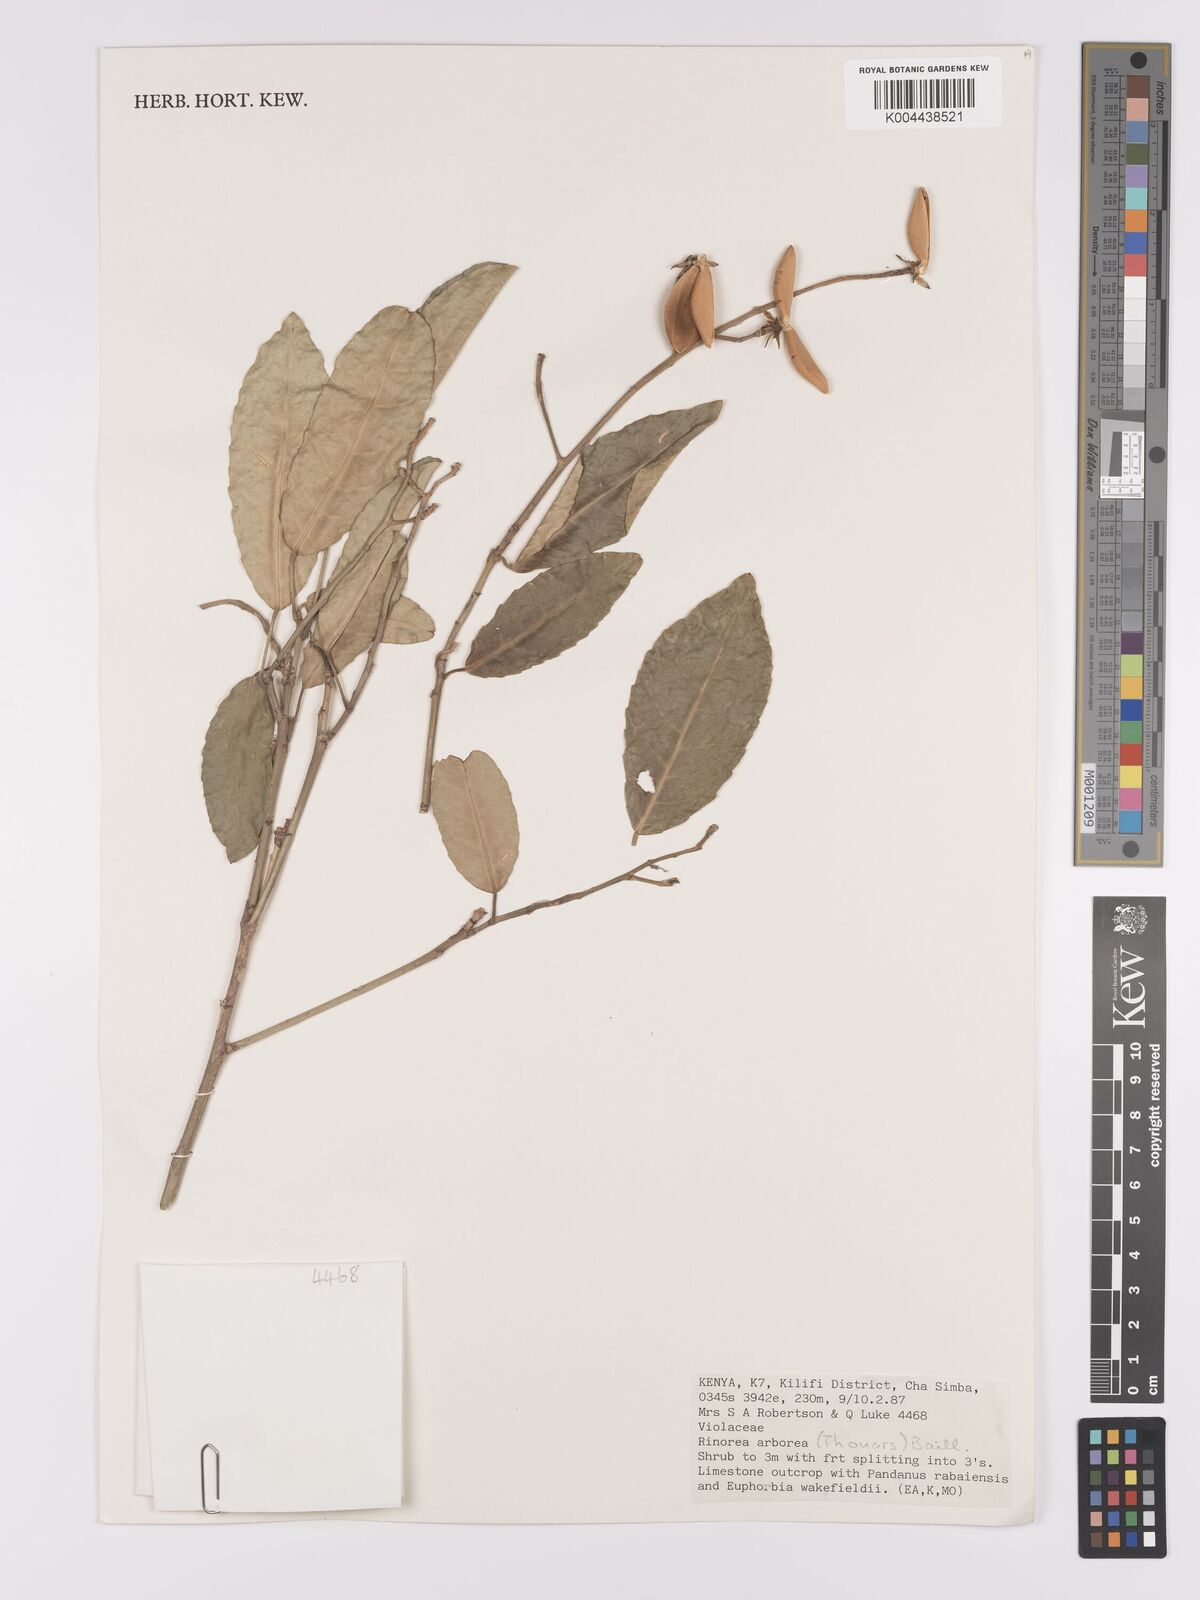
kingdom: Plantae
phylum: Tracheophyta
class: Magnoliopsida
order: Malpighiales
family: Violaceae
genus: Rinorea
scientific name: Rinorea arborea
